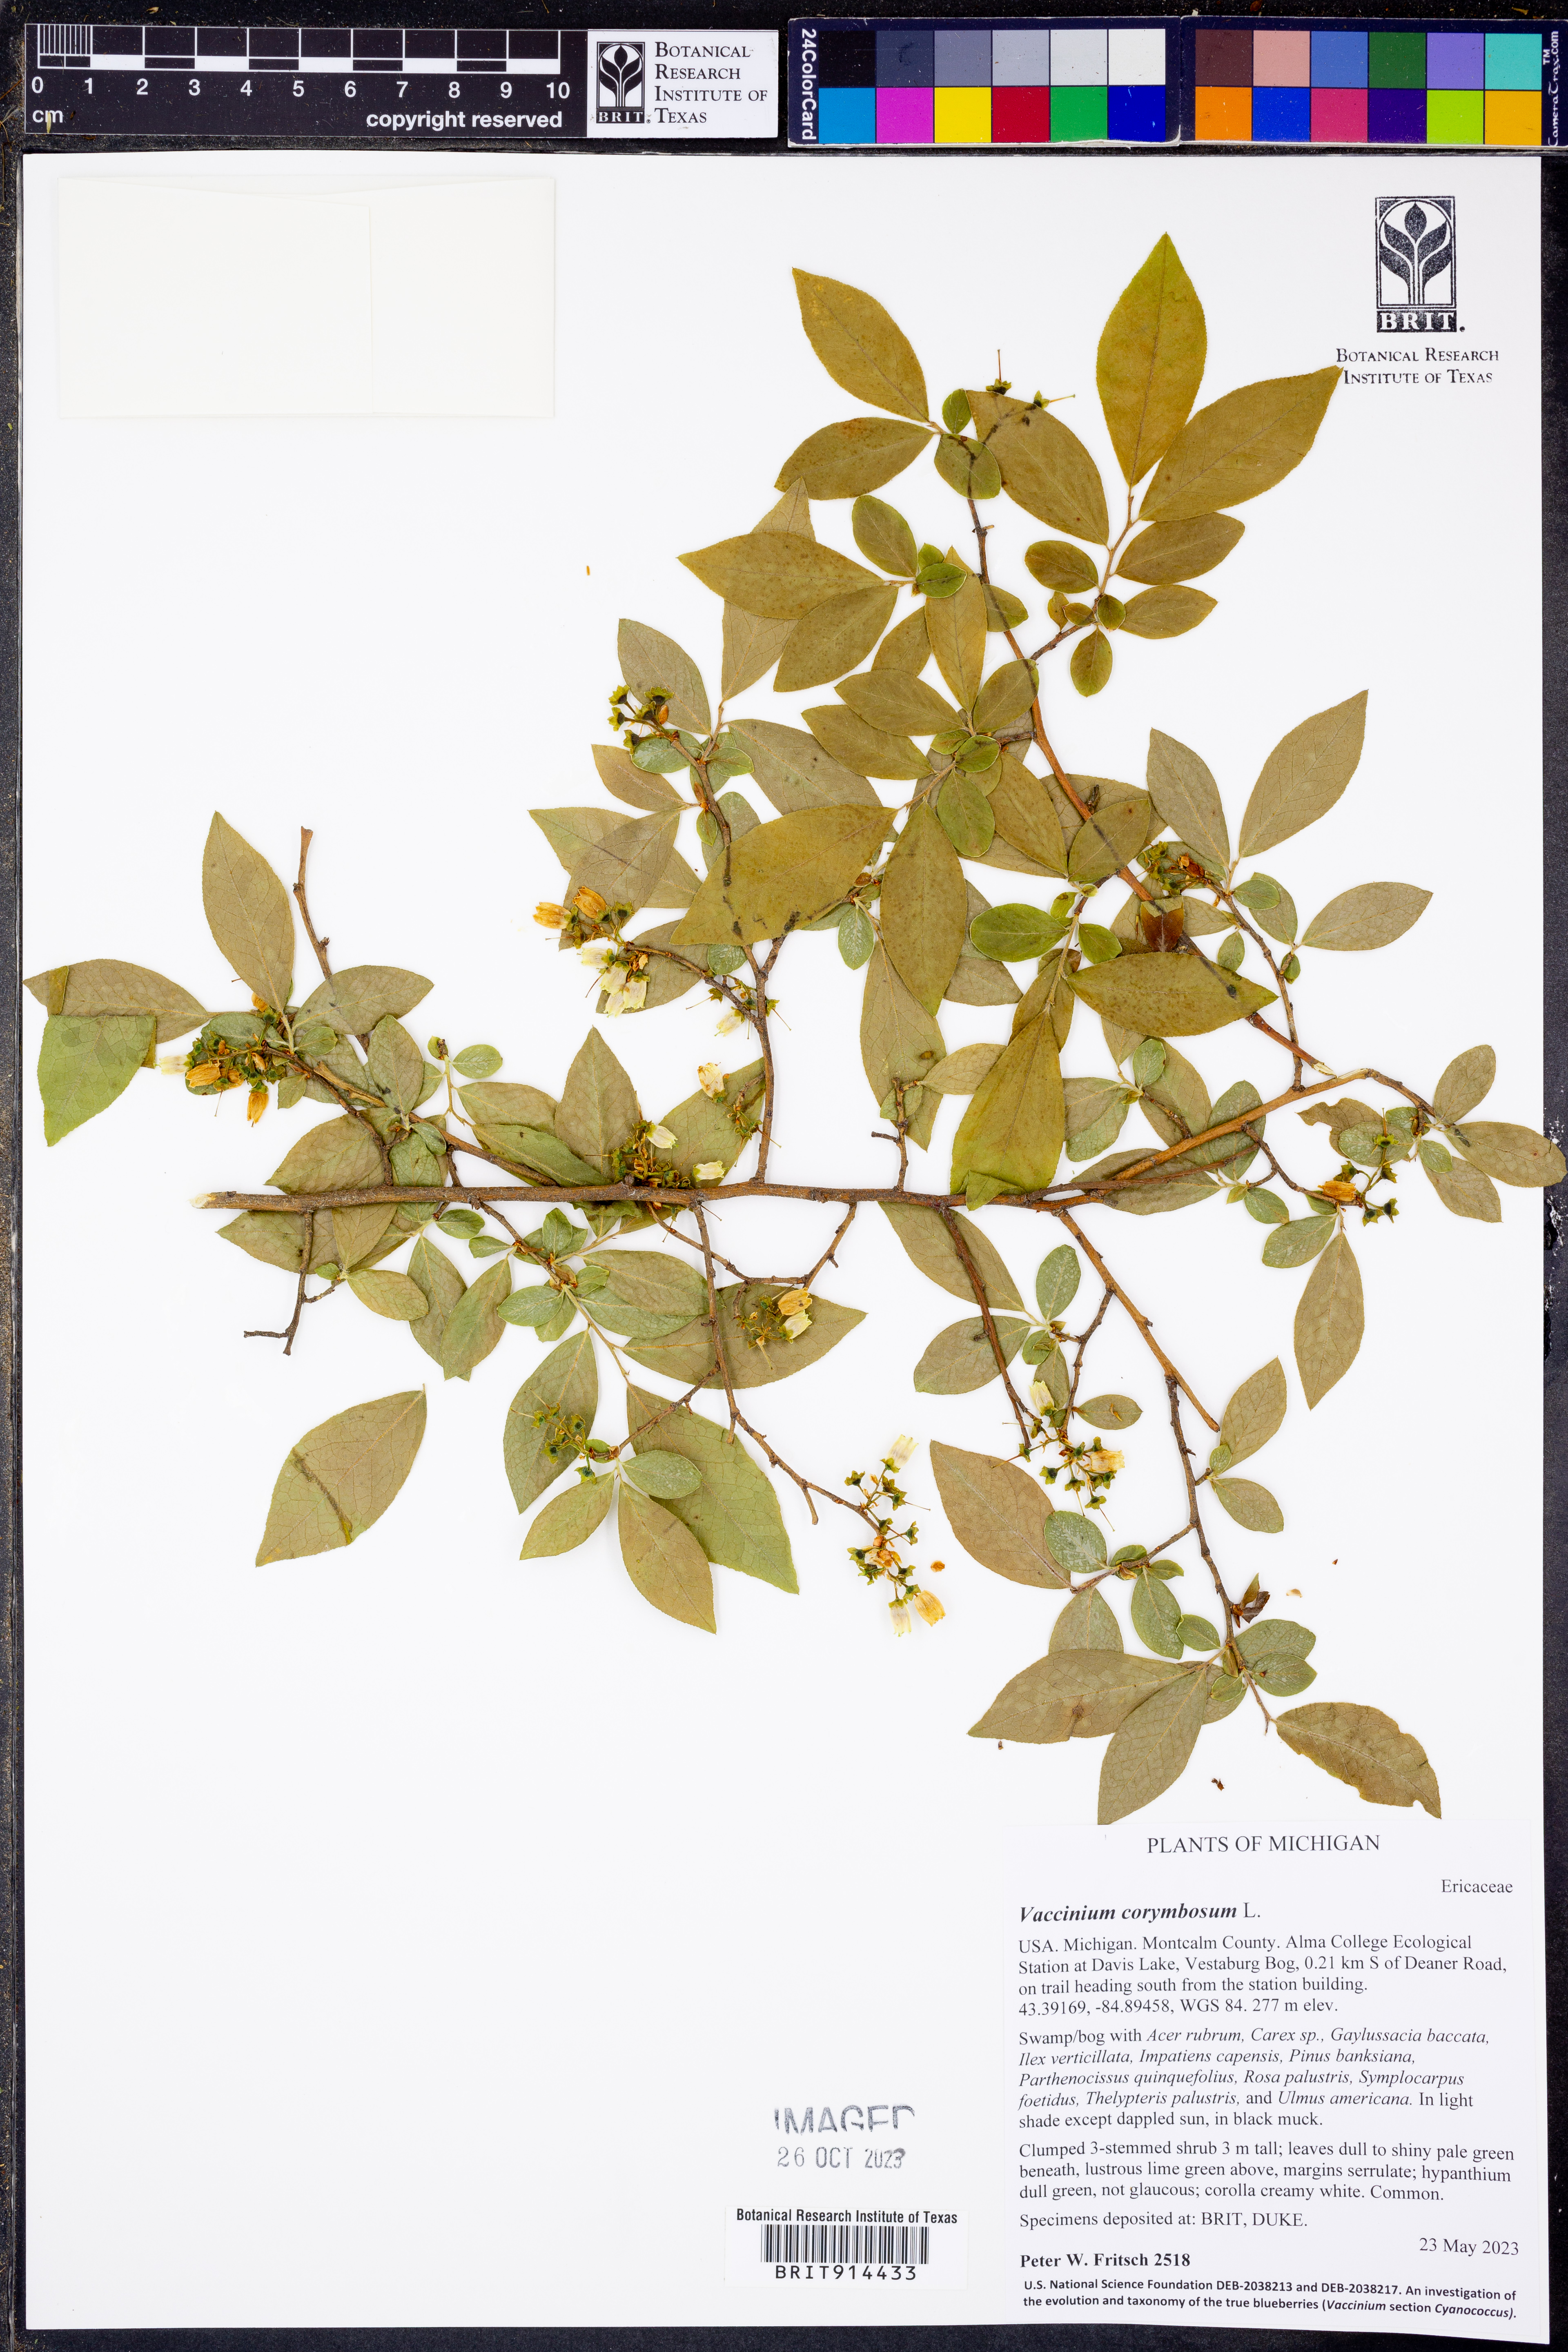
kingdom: Plantae
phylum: Tracheophyta
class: Magnoliopsida
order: Ericales
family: Ericaceae
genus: Vaccinium
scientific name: Vaccinium corymbosum
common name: Blueberry
